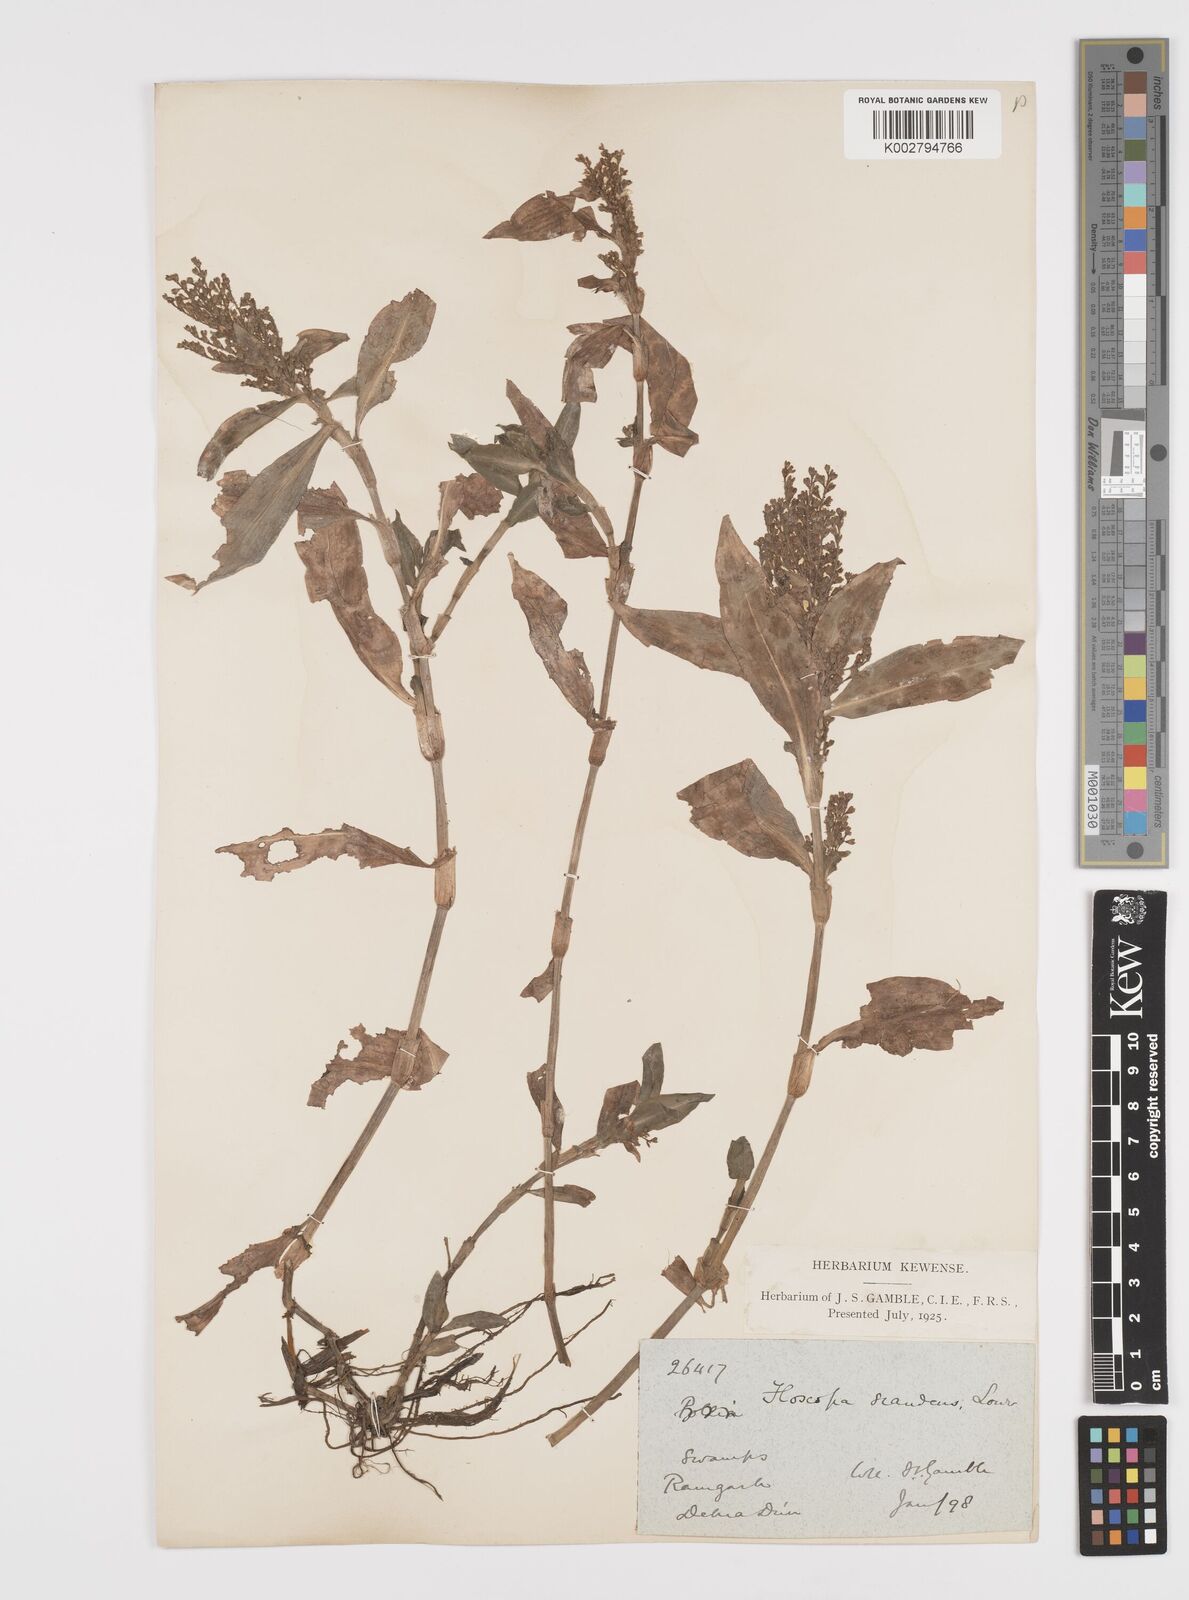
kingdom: Plantae
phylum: Tracheophyta
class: Liliopsida
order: Commelinales
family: Commelinaceae
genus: Floscopa
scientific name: Floscopa scandens
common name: Climbing flower cup
